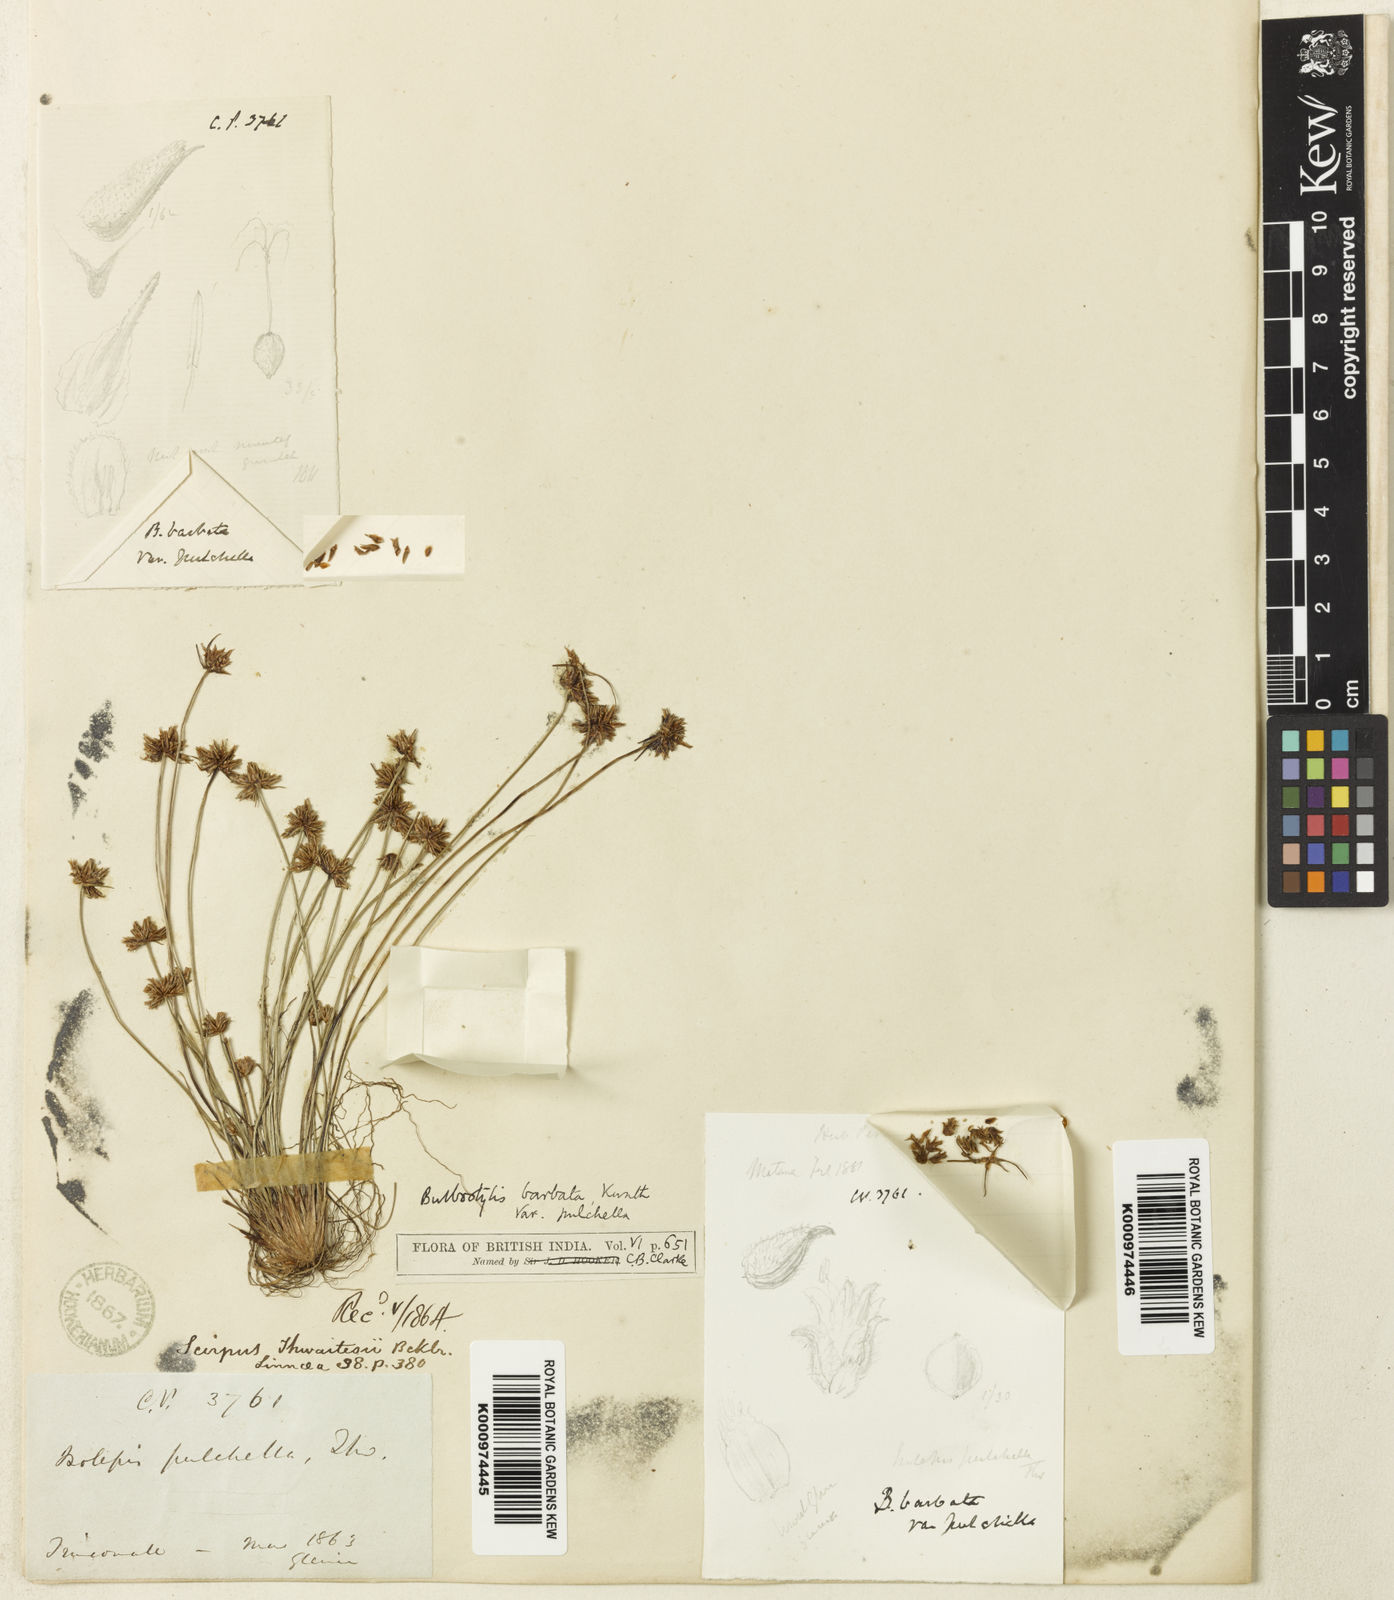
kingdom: Plantae
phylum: Tracheophyta
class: Liliopsida
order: Poales
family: Cyperaceae
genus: Bulbostylis
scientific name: Bulbostylis barbata
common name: Watergrass
